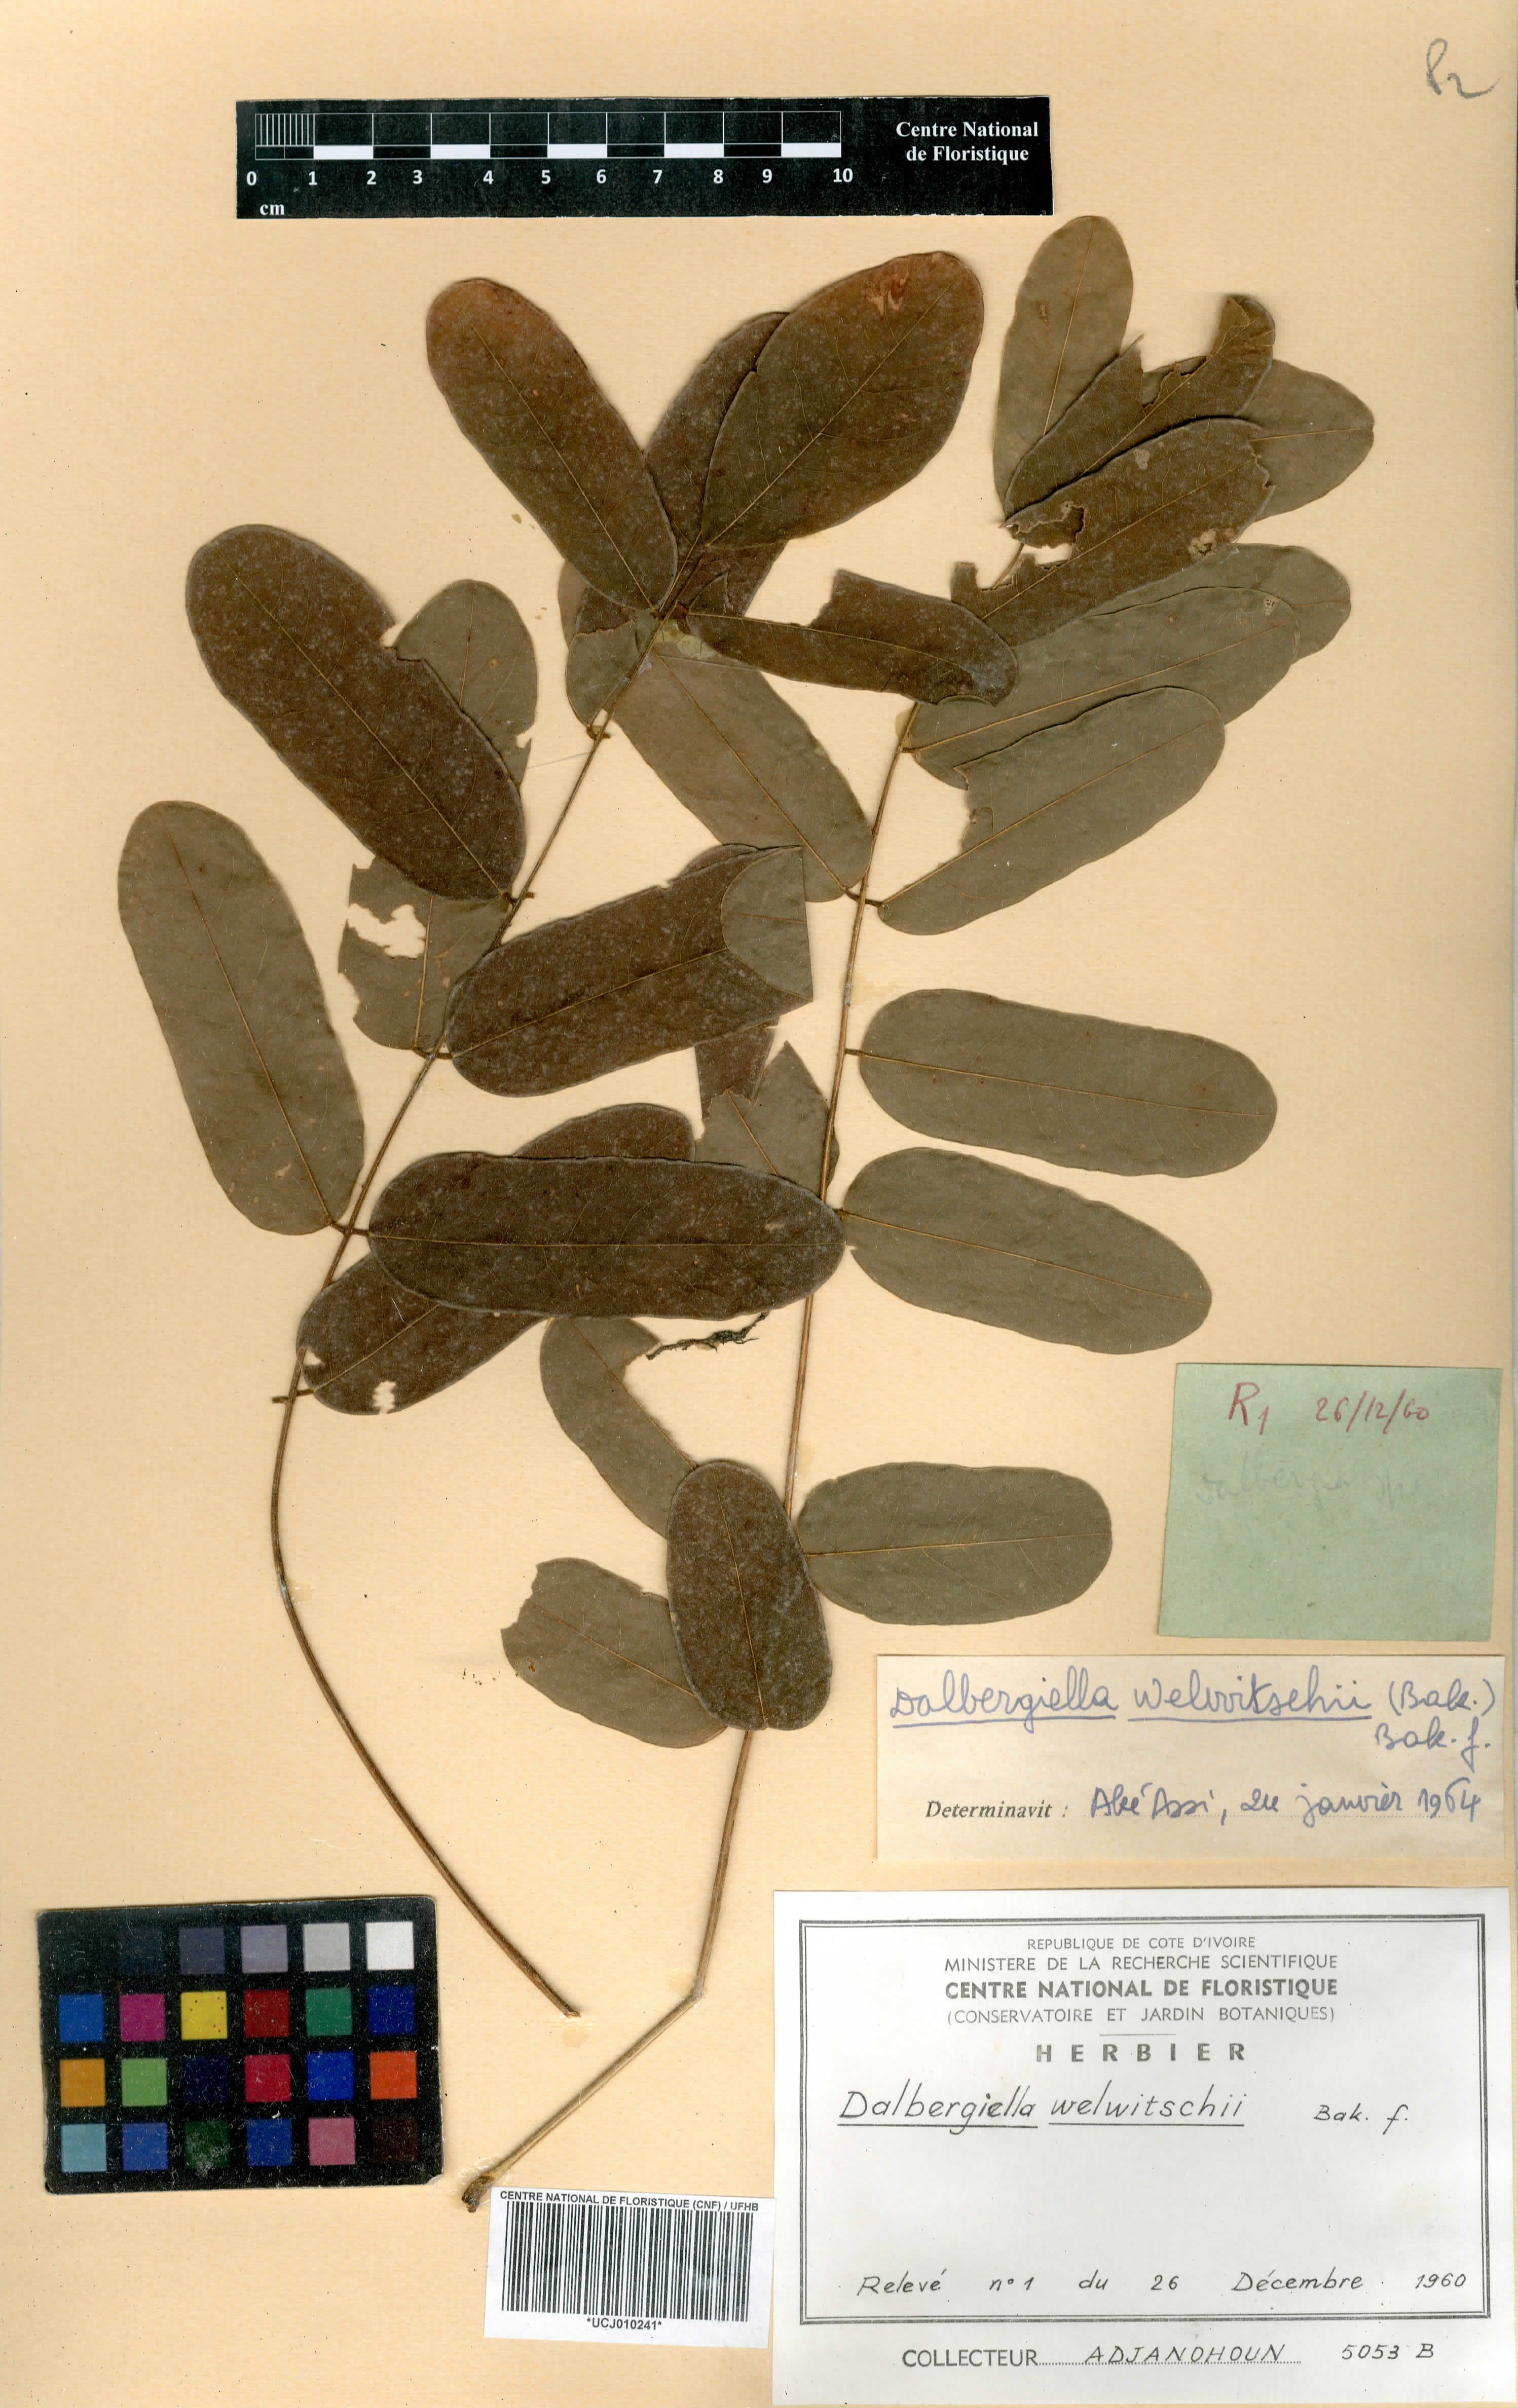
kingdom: Plantae
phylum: Tracheophyta
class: Magnoliopsida
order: Fabales
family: Fabaceae
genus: Dalbergiella
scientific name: Dalbergiella welwitschii
